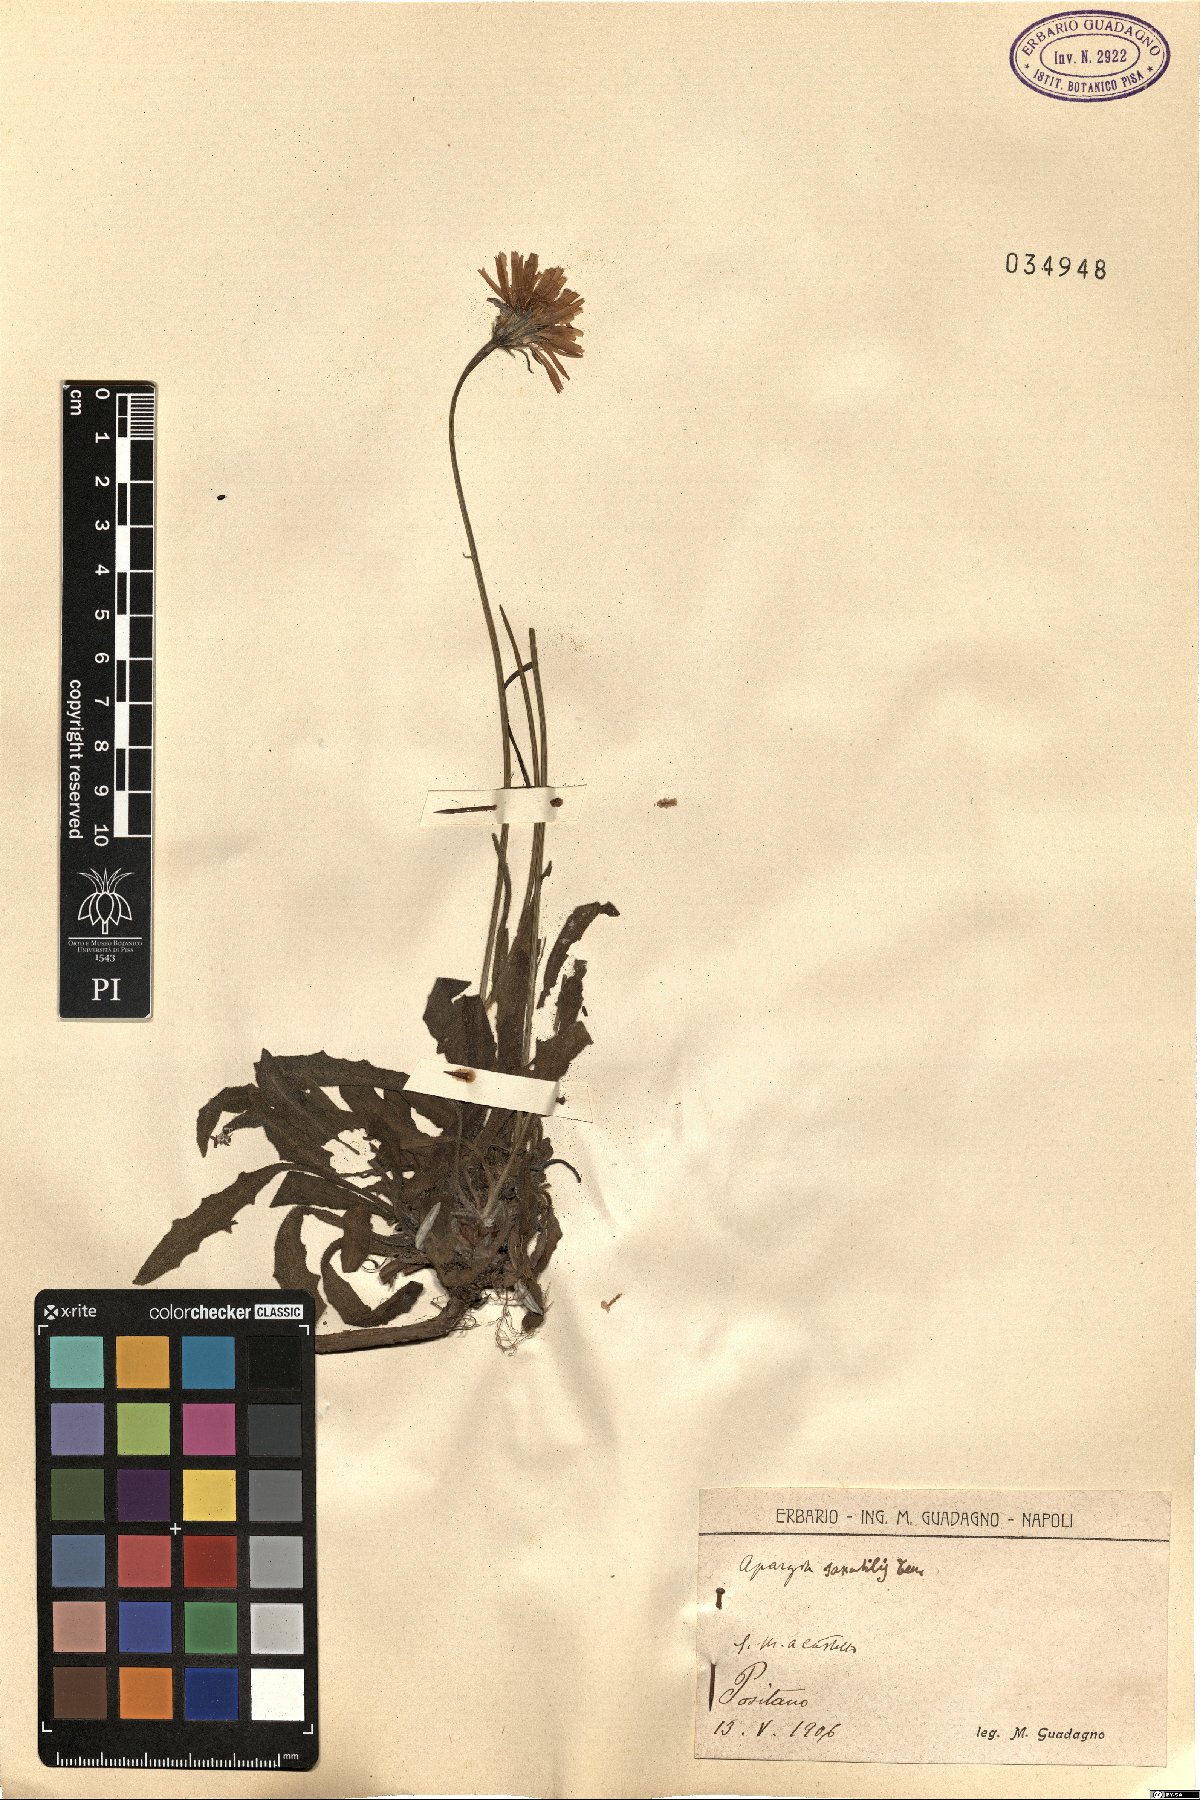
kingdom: Plantae
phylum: Tracheophyta
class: Magnoliopsida
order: Asterales
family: Asteraceae
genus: Leontodon
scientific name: Leontodon crispus
